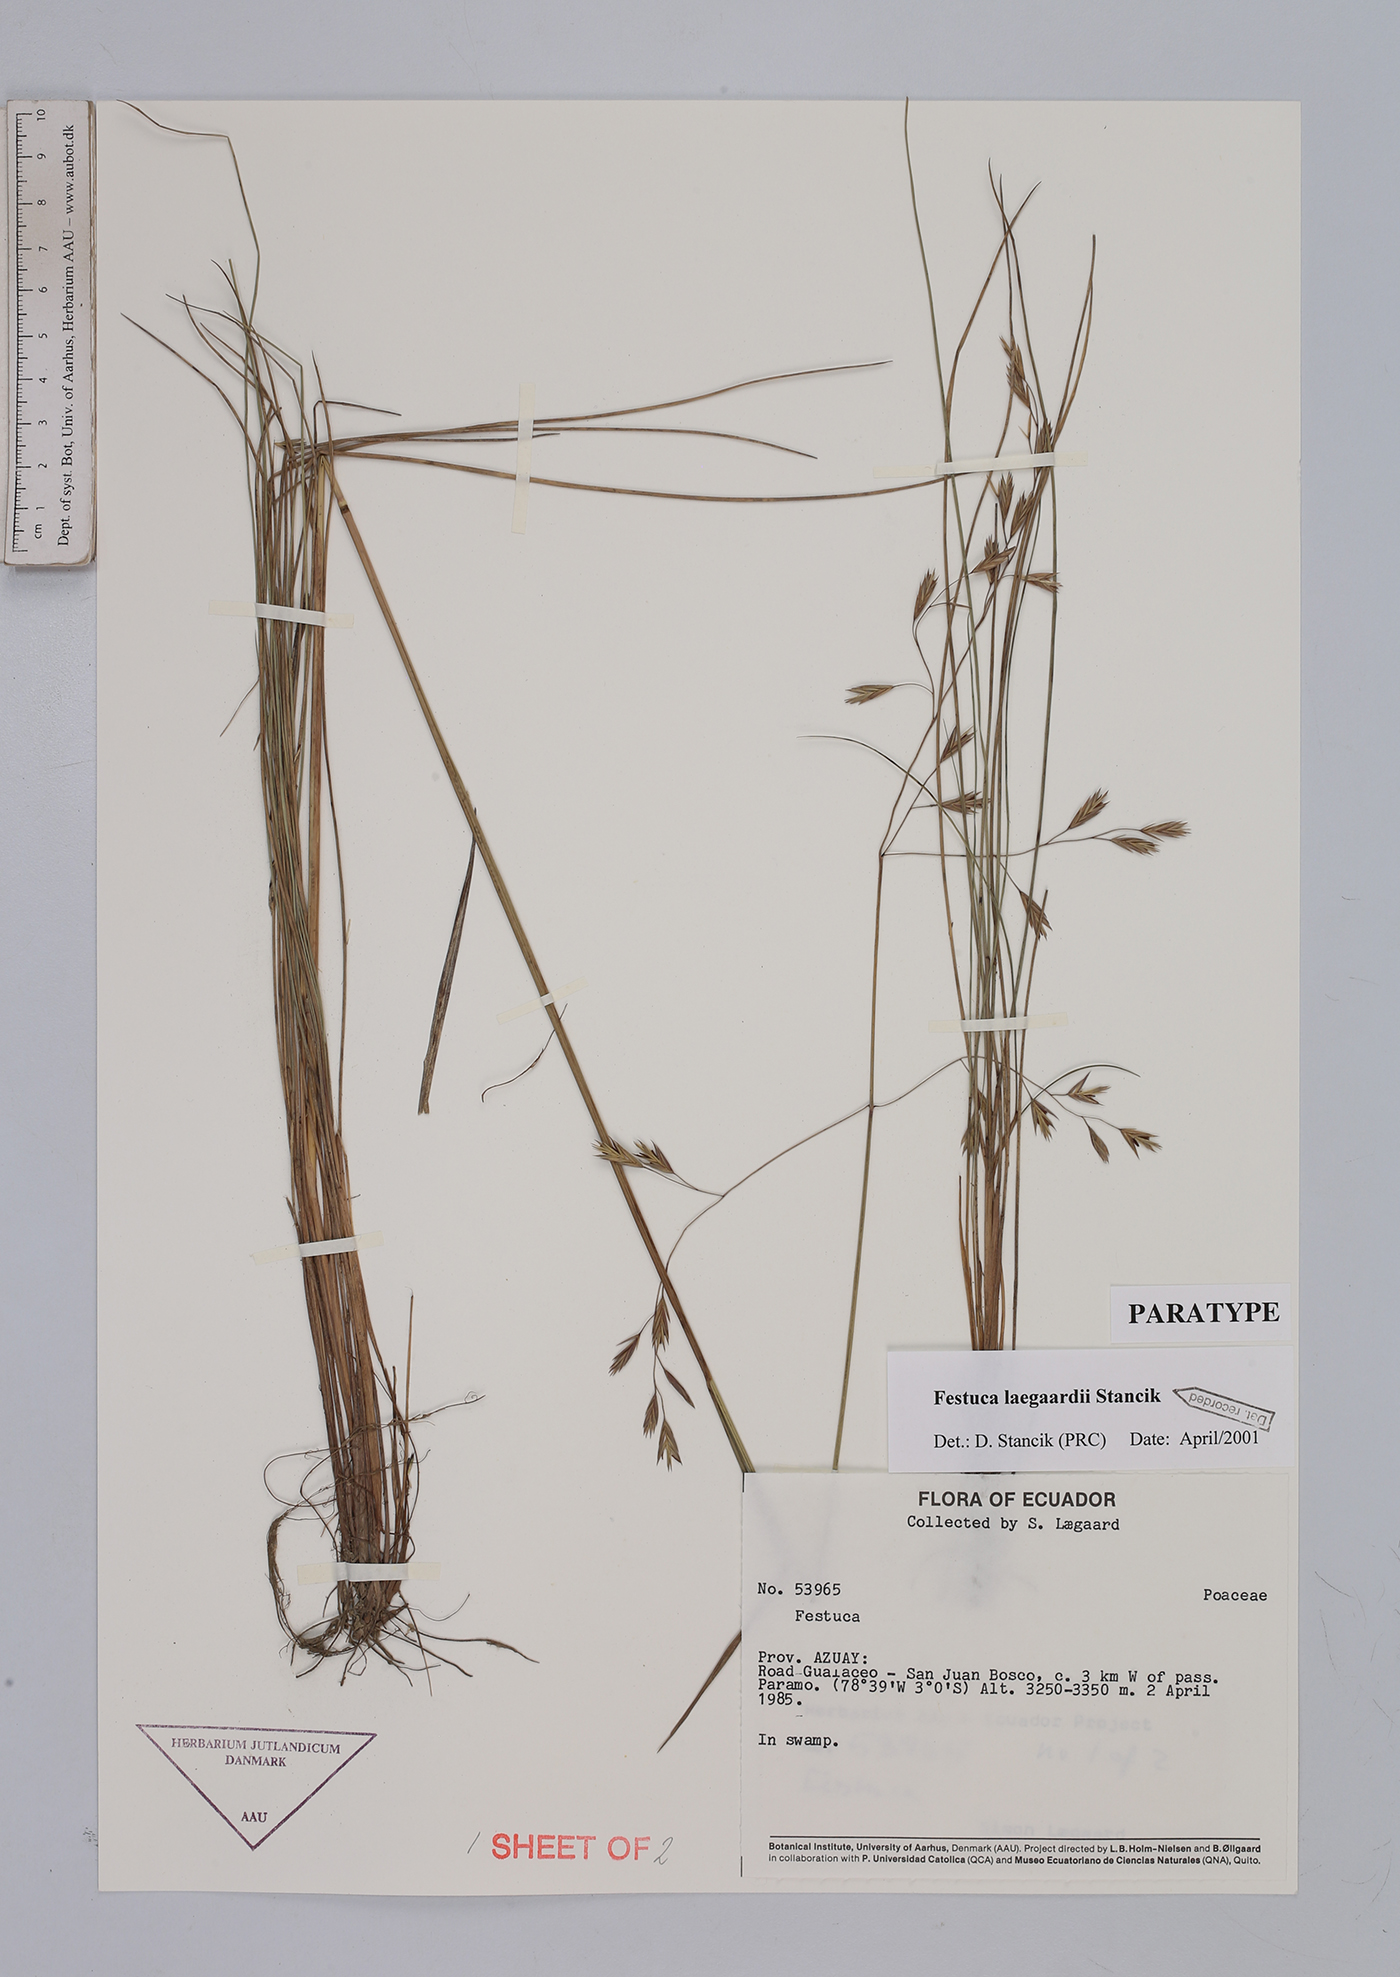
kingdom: Plantae
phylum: Tracheophyta
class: Liliopsida
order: Poales
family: Poaceae
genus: Festuca
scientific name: Festuca laegaardii
